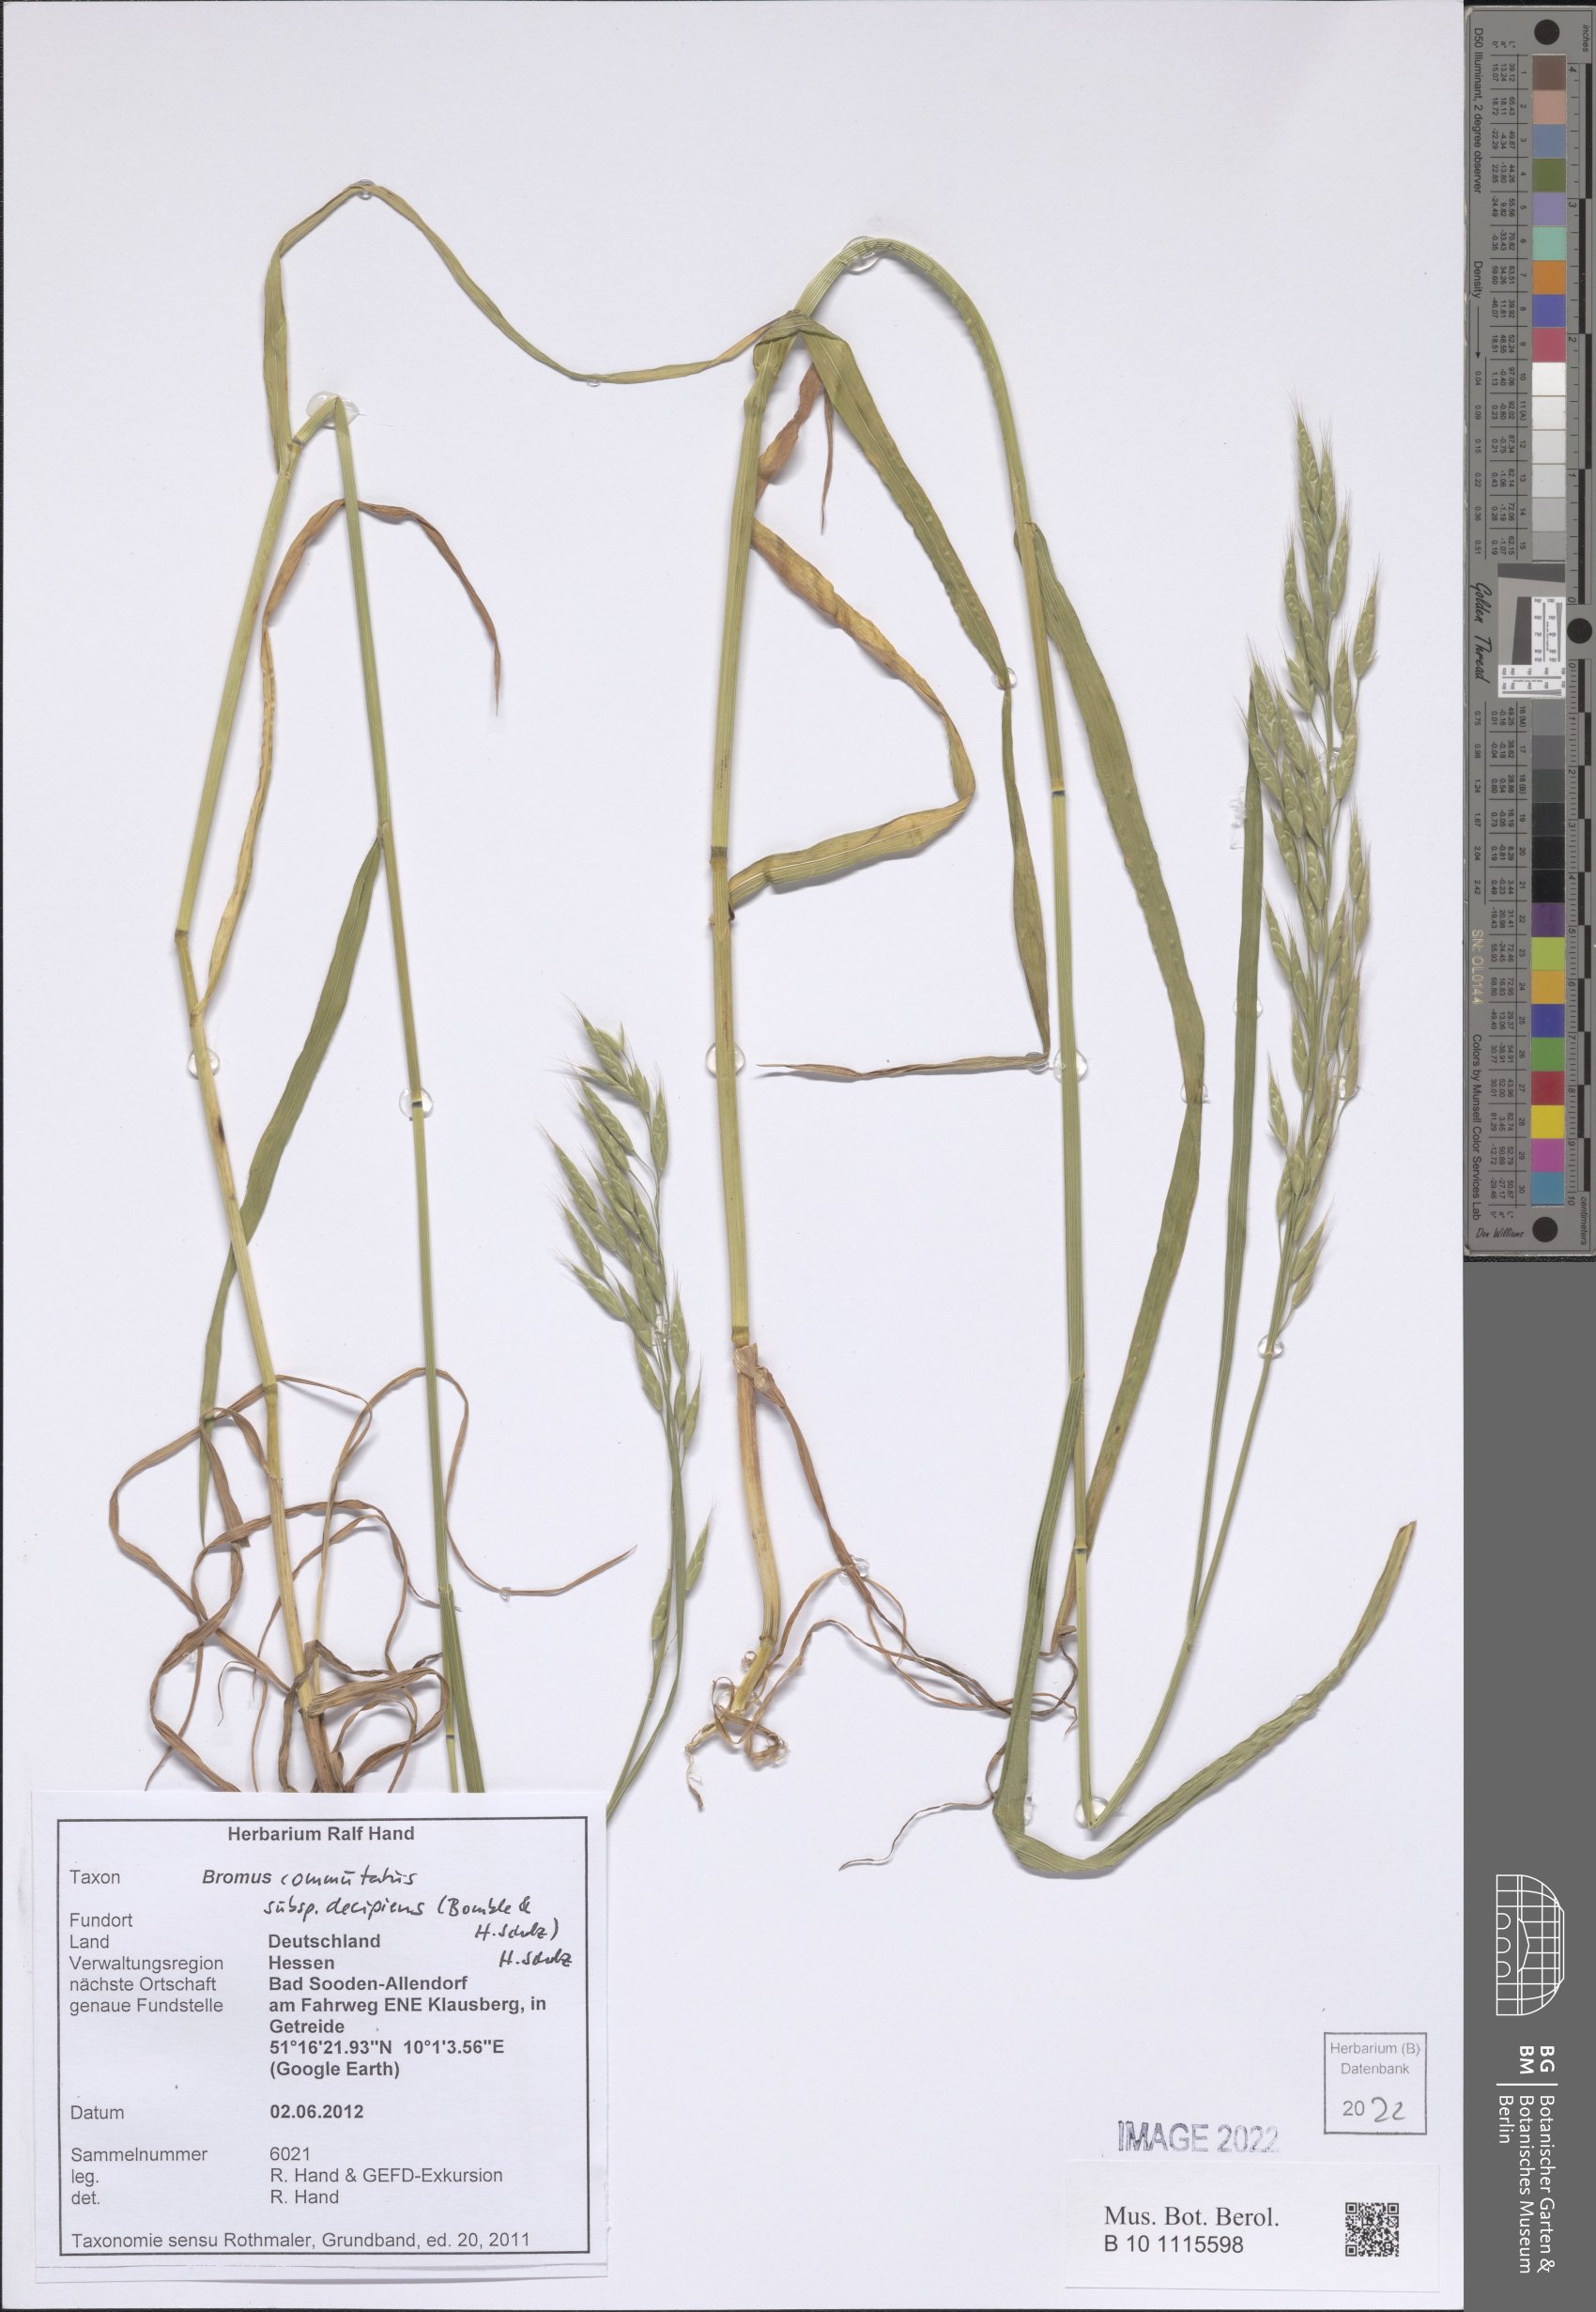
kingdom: Plantae
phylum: Tracheophyta
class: Liliopsida
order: Poales
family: Poaceae
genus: Bromus
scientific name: Bromus commutatus
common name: Meadow brome
